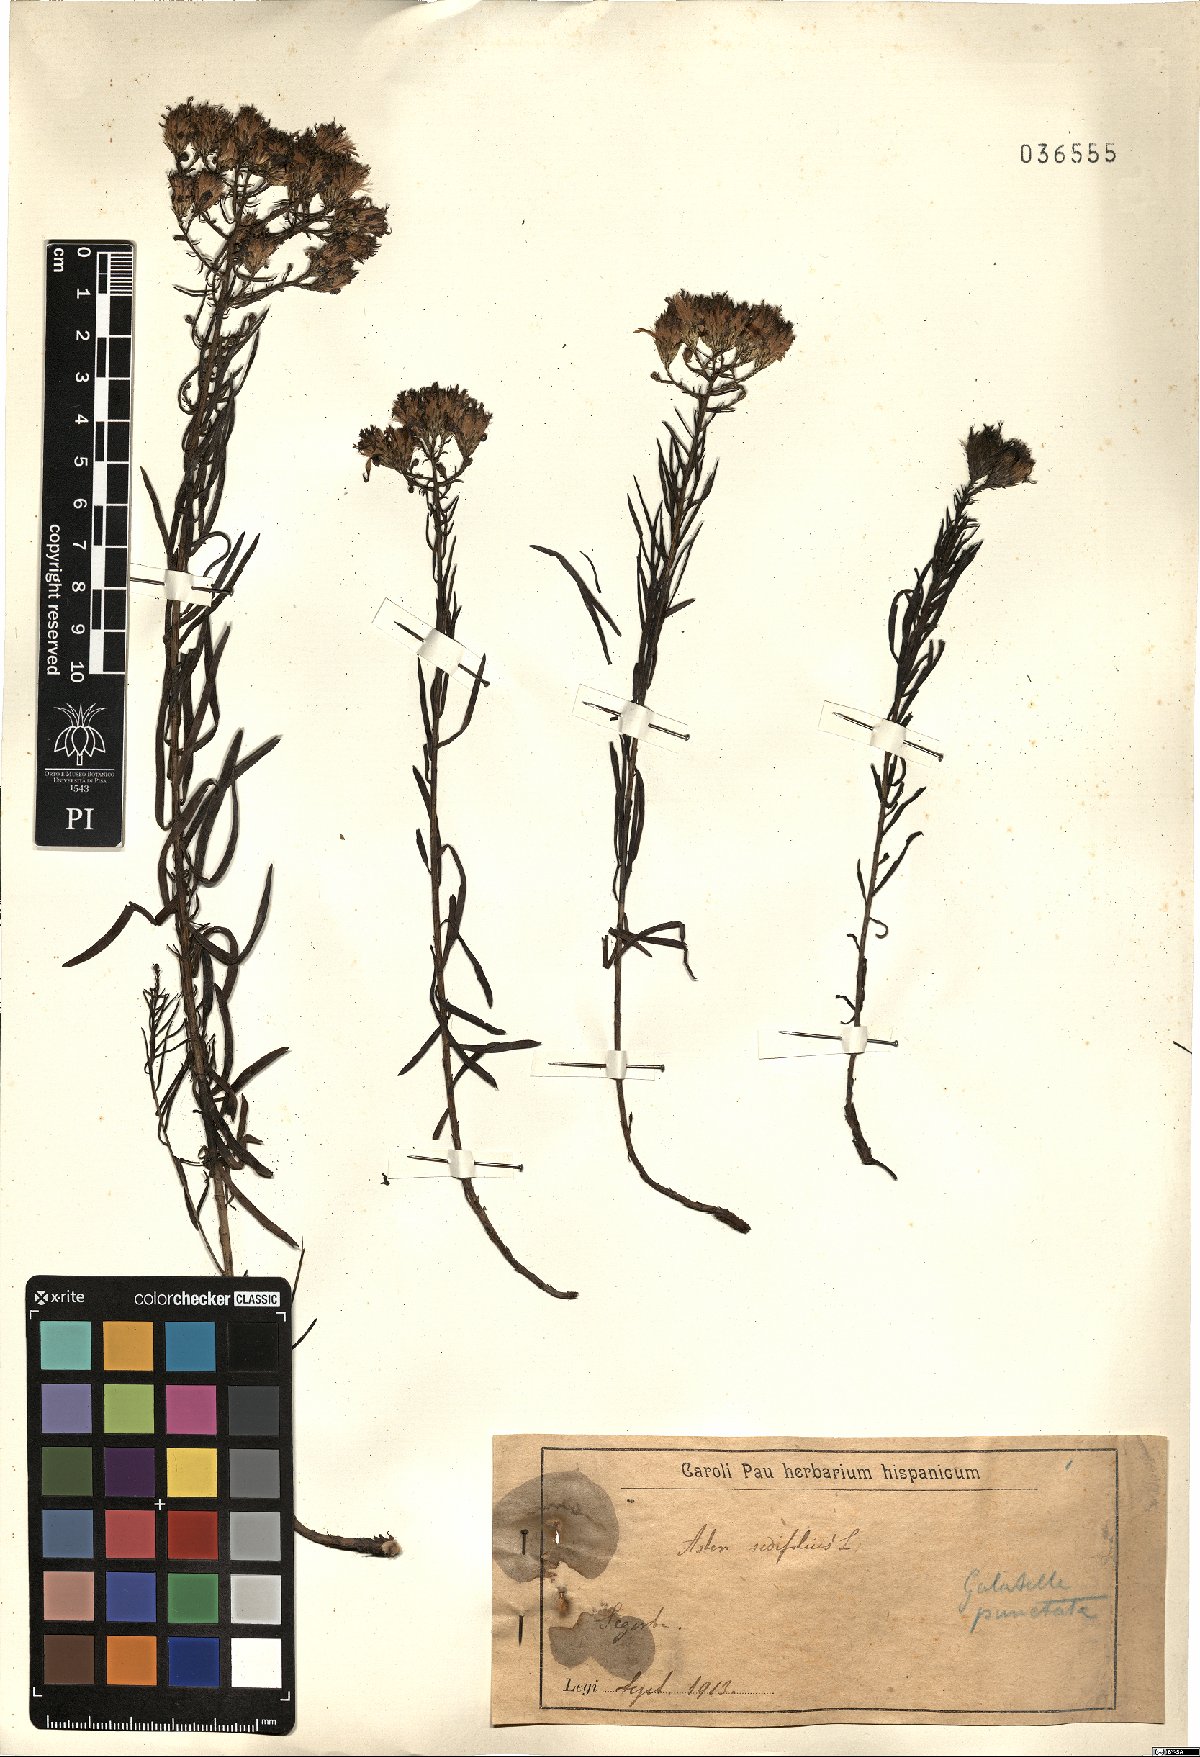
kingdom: Plantae
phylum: Tracheophyta
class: Magnoliopsida
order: Asterales
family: Asteraceae
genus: Galatella
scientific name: Galatella sedifolia
